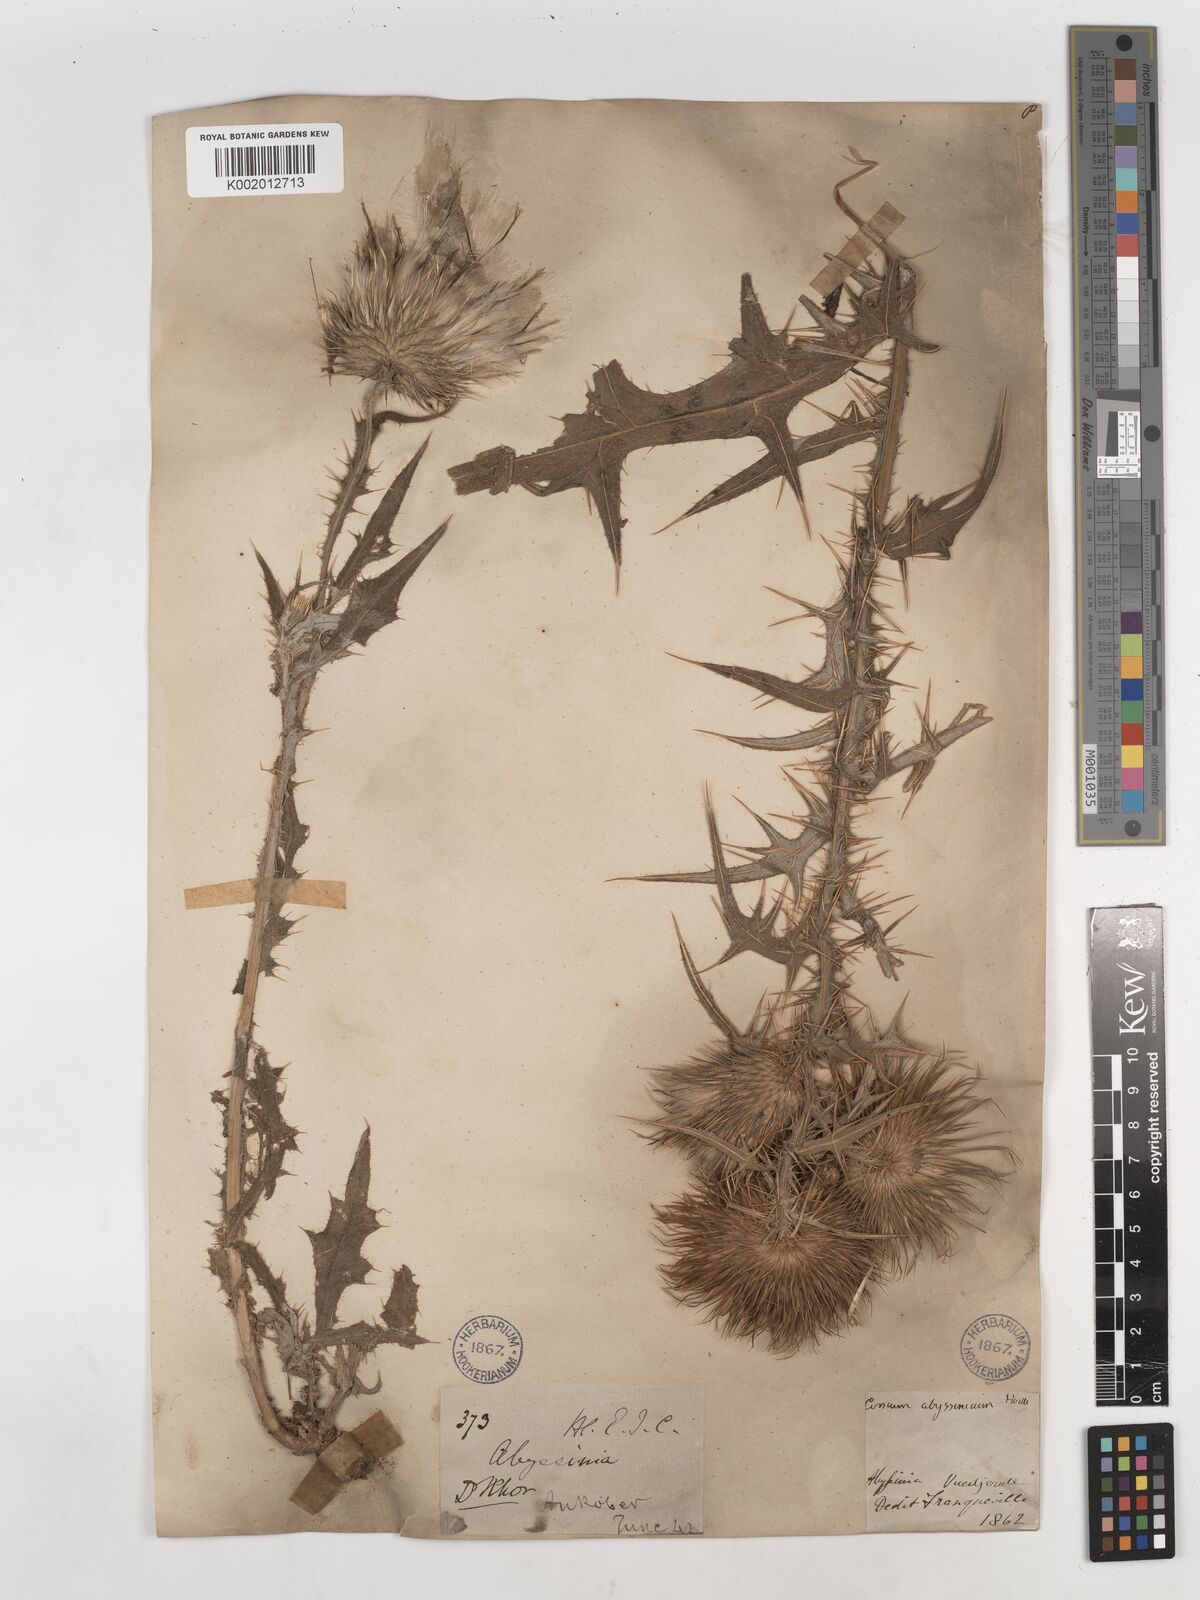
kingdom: Plantae
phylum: Tracheophyta
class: Magnoliopsida
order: Asterales
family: Asteraceae
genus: Cirsium
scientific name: Cirsium vulgare
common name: Bull thistle
